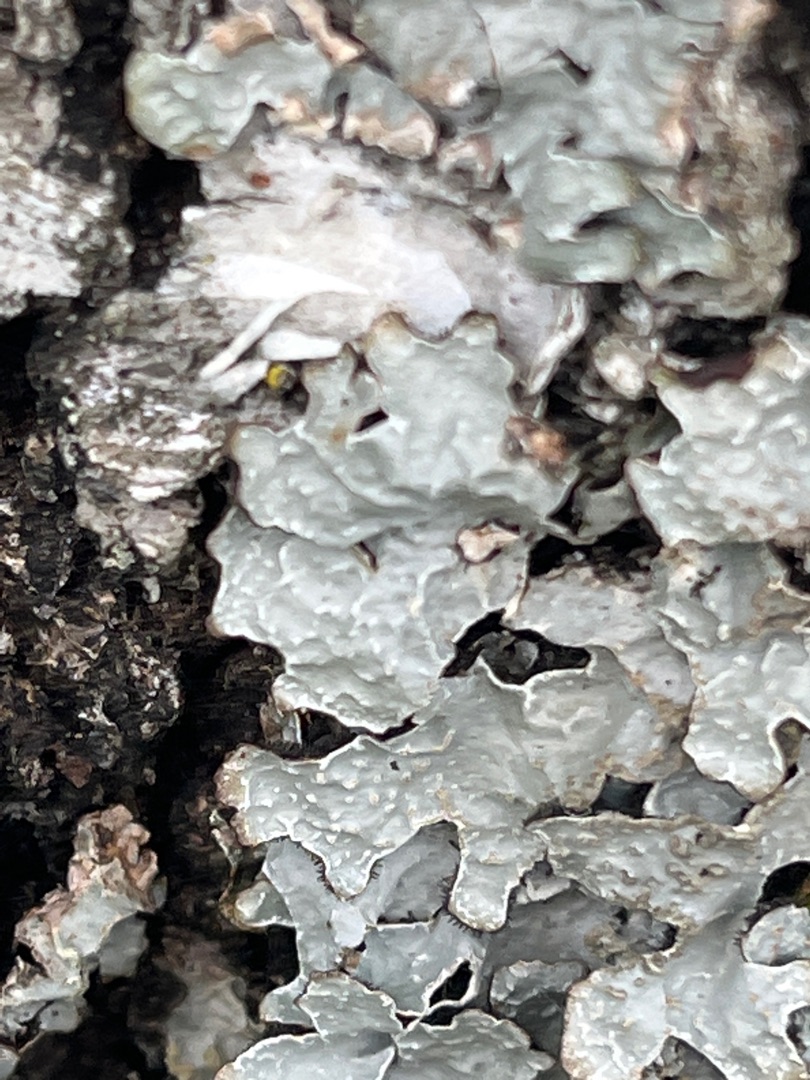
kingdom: Fungi
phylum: Ascomycota
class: Lecanoromycetes
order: Lecanorales
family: Parmeliaceae
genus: Parmelia
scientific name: Parmelia sulcata
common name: Rynket skållav
